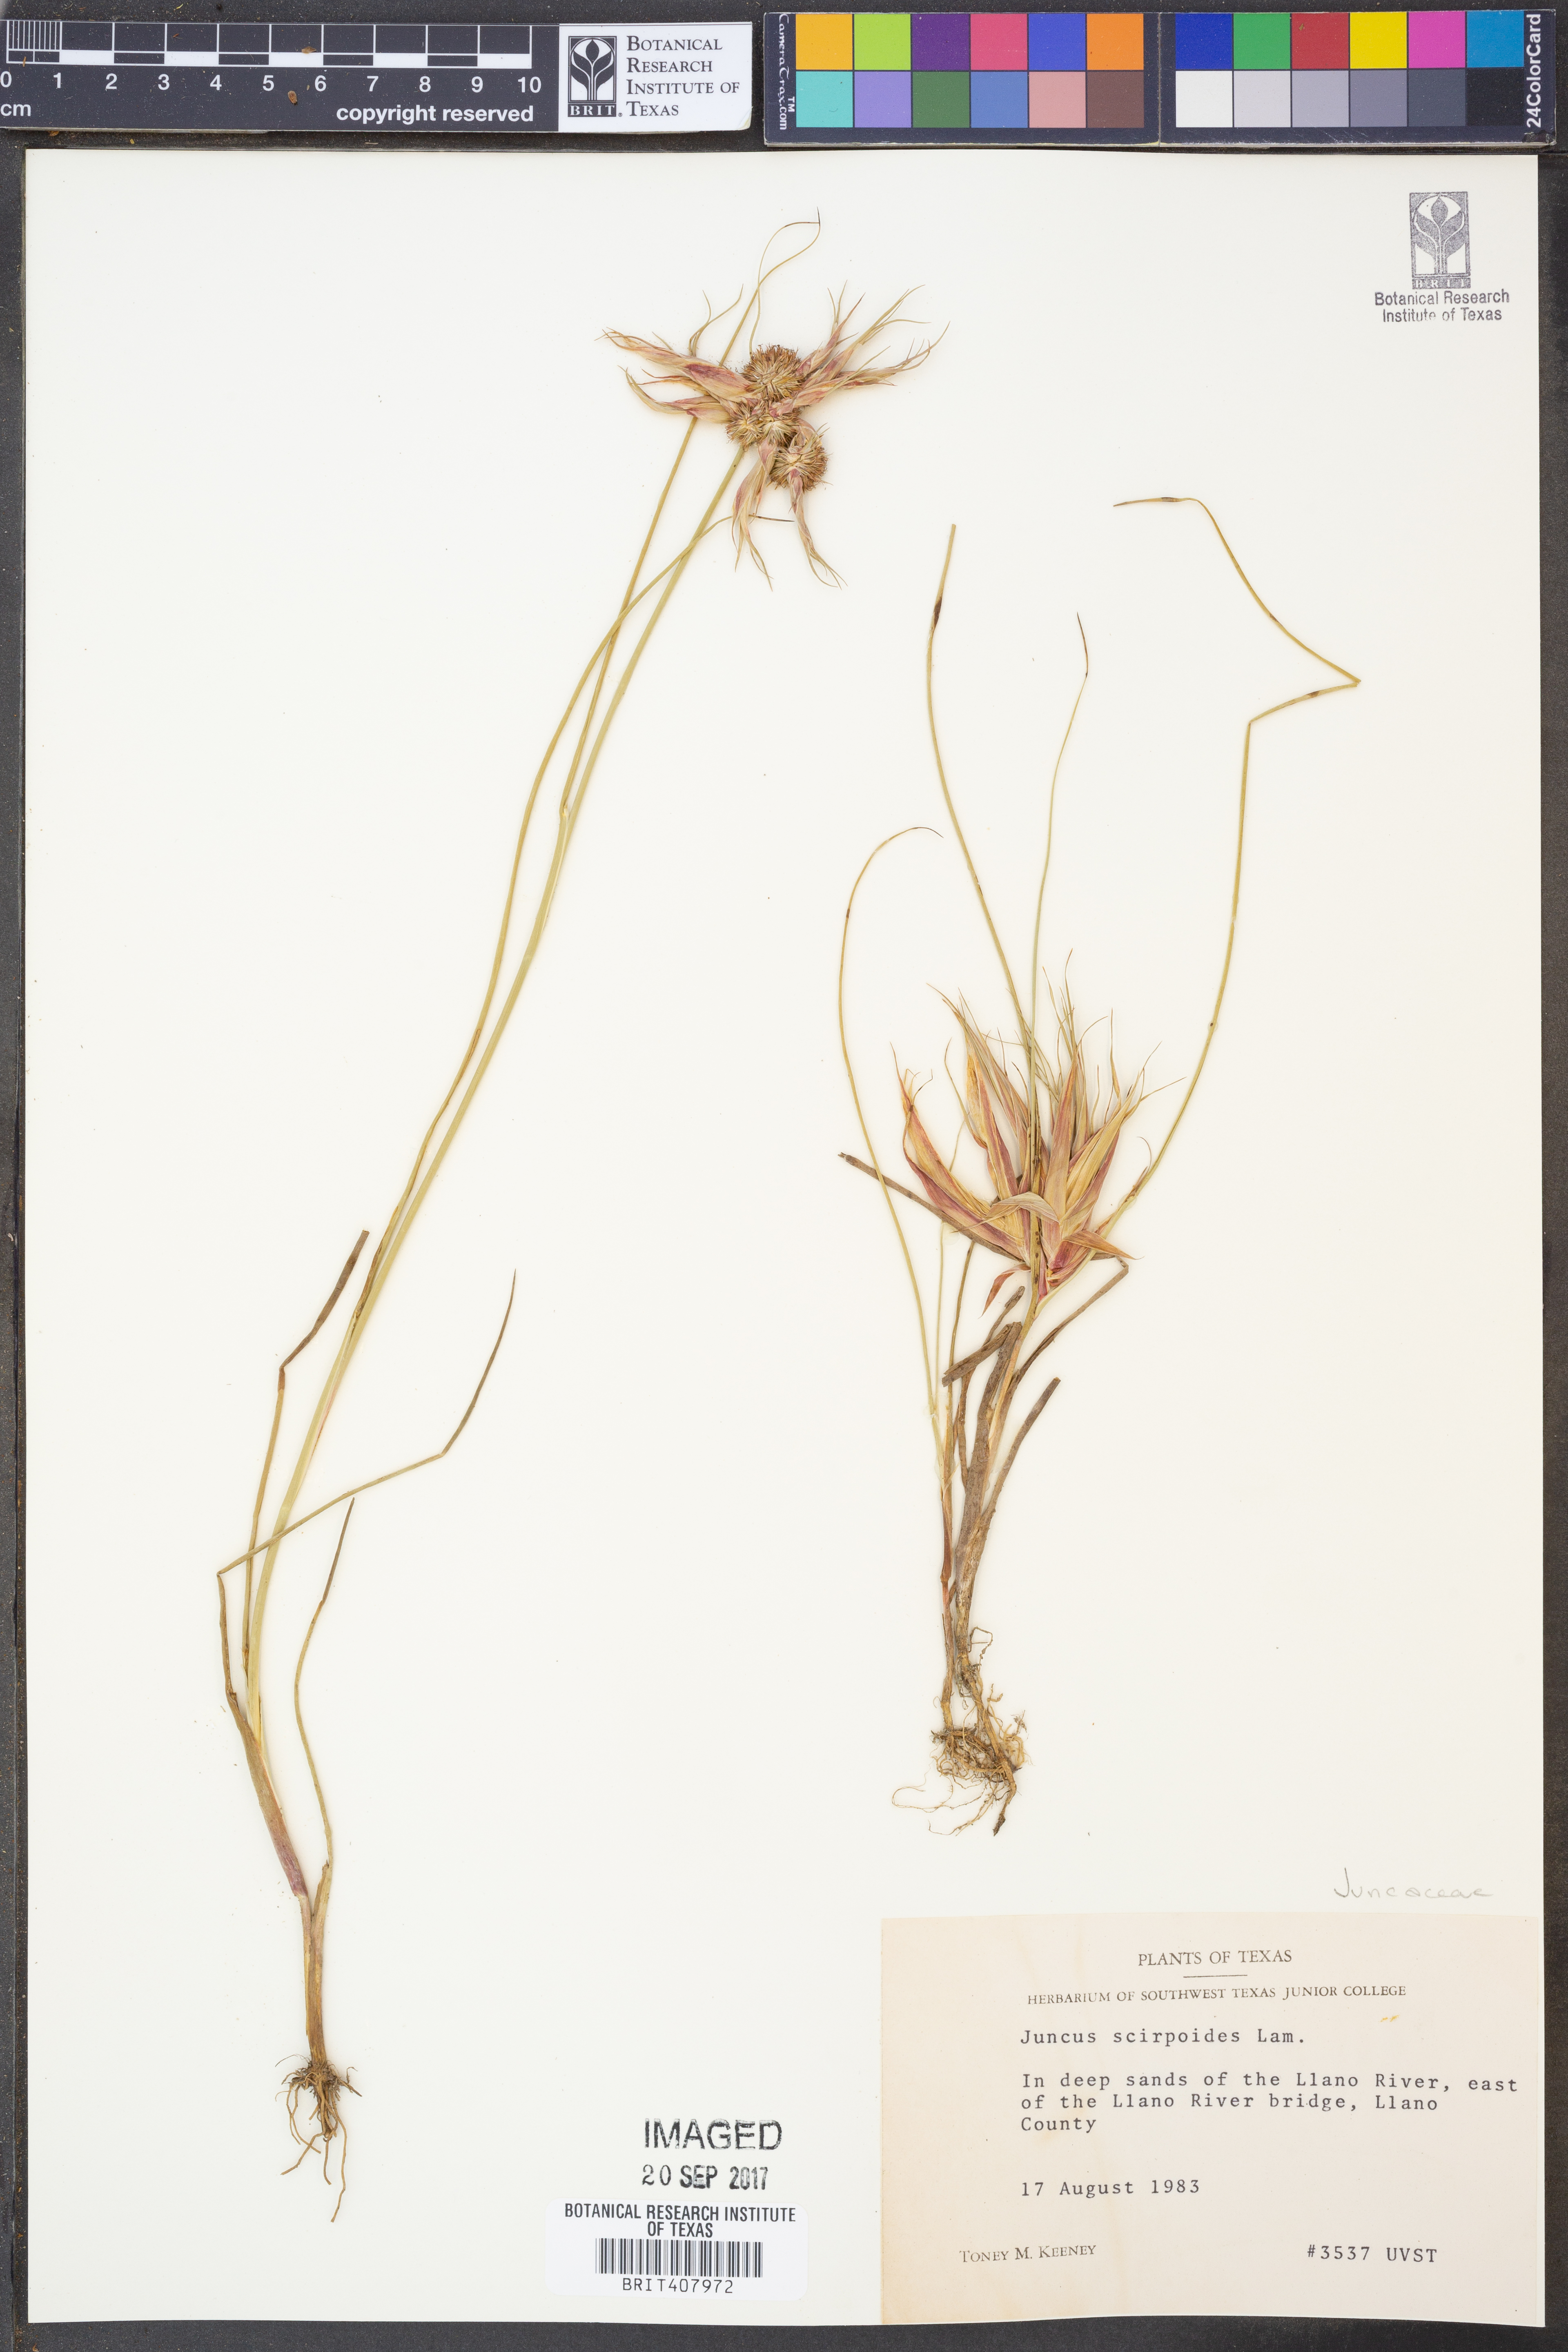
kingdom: Plantae
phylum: Tracheophyta
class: Liliopsida
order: Poales
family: Juncaceae
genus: Juncus
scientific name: Juncus scirpoides
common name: Needlepod rush
